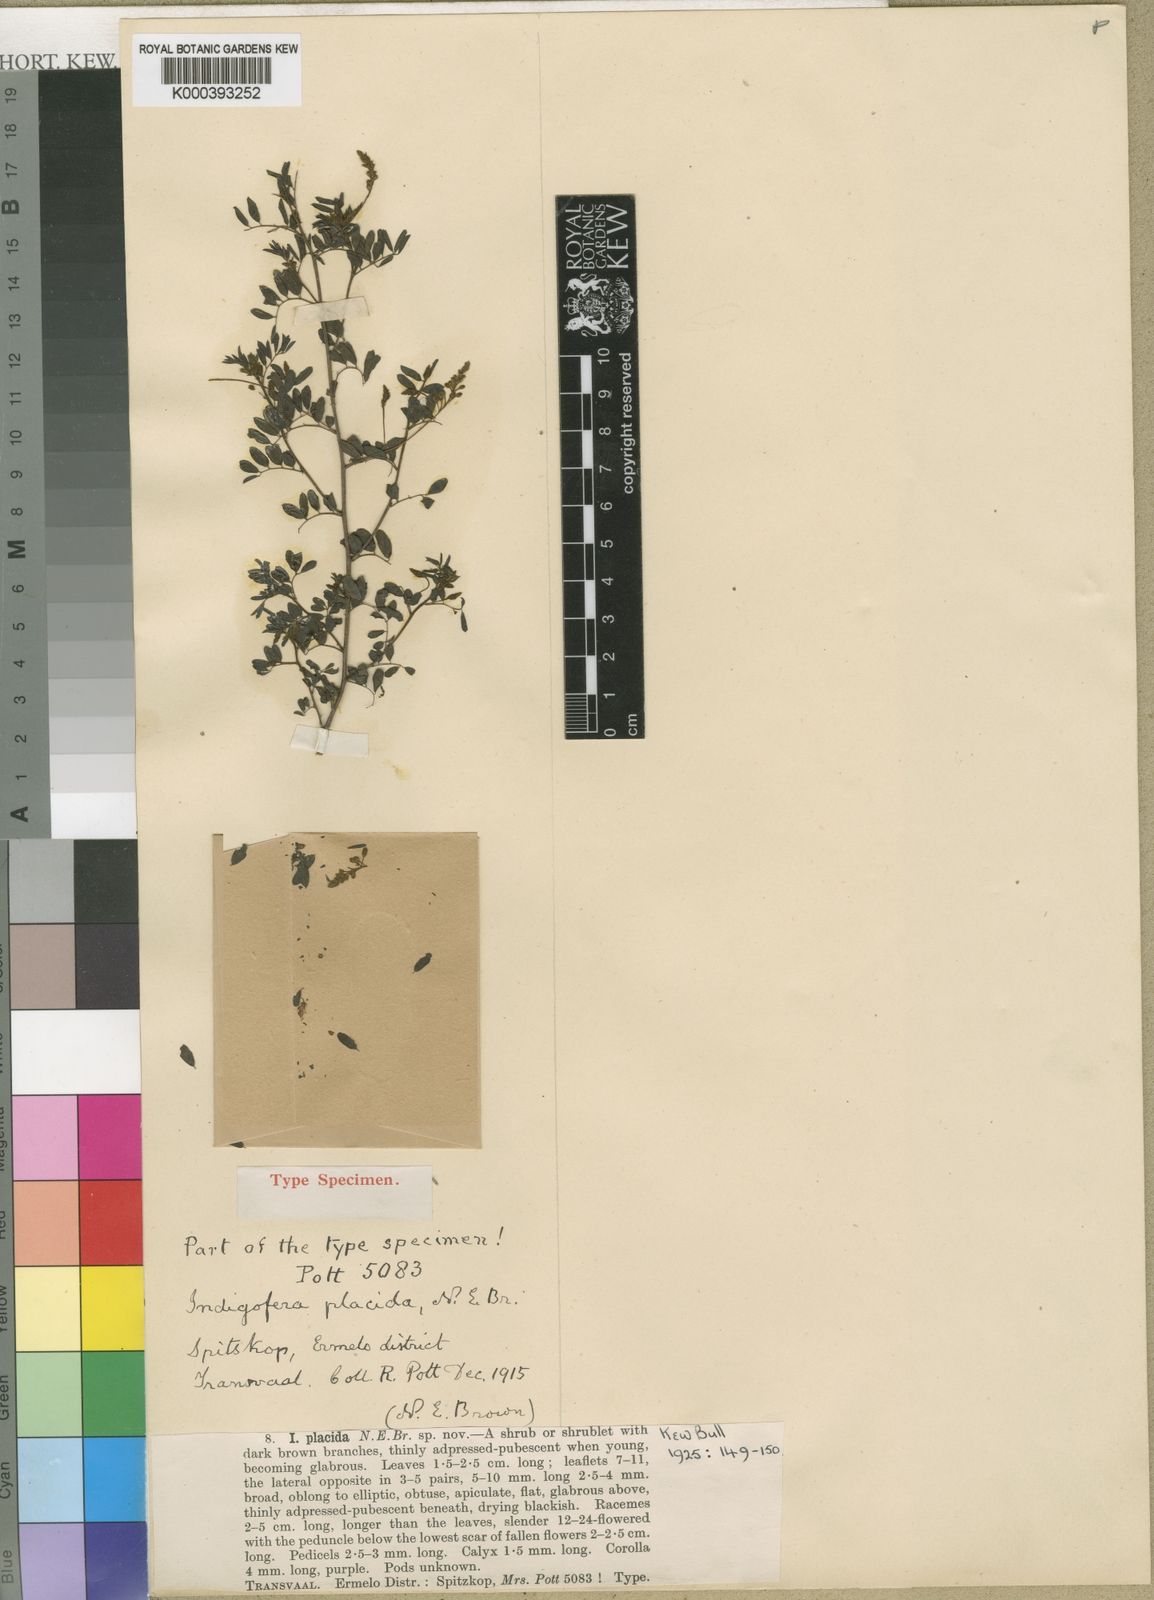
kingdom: Plantae
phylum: Tracheophyta
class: Magnoliopsida
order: Fabales
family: Fabaceae
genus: Indigofera
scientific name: Indigofera placida
